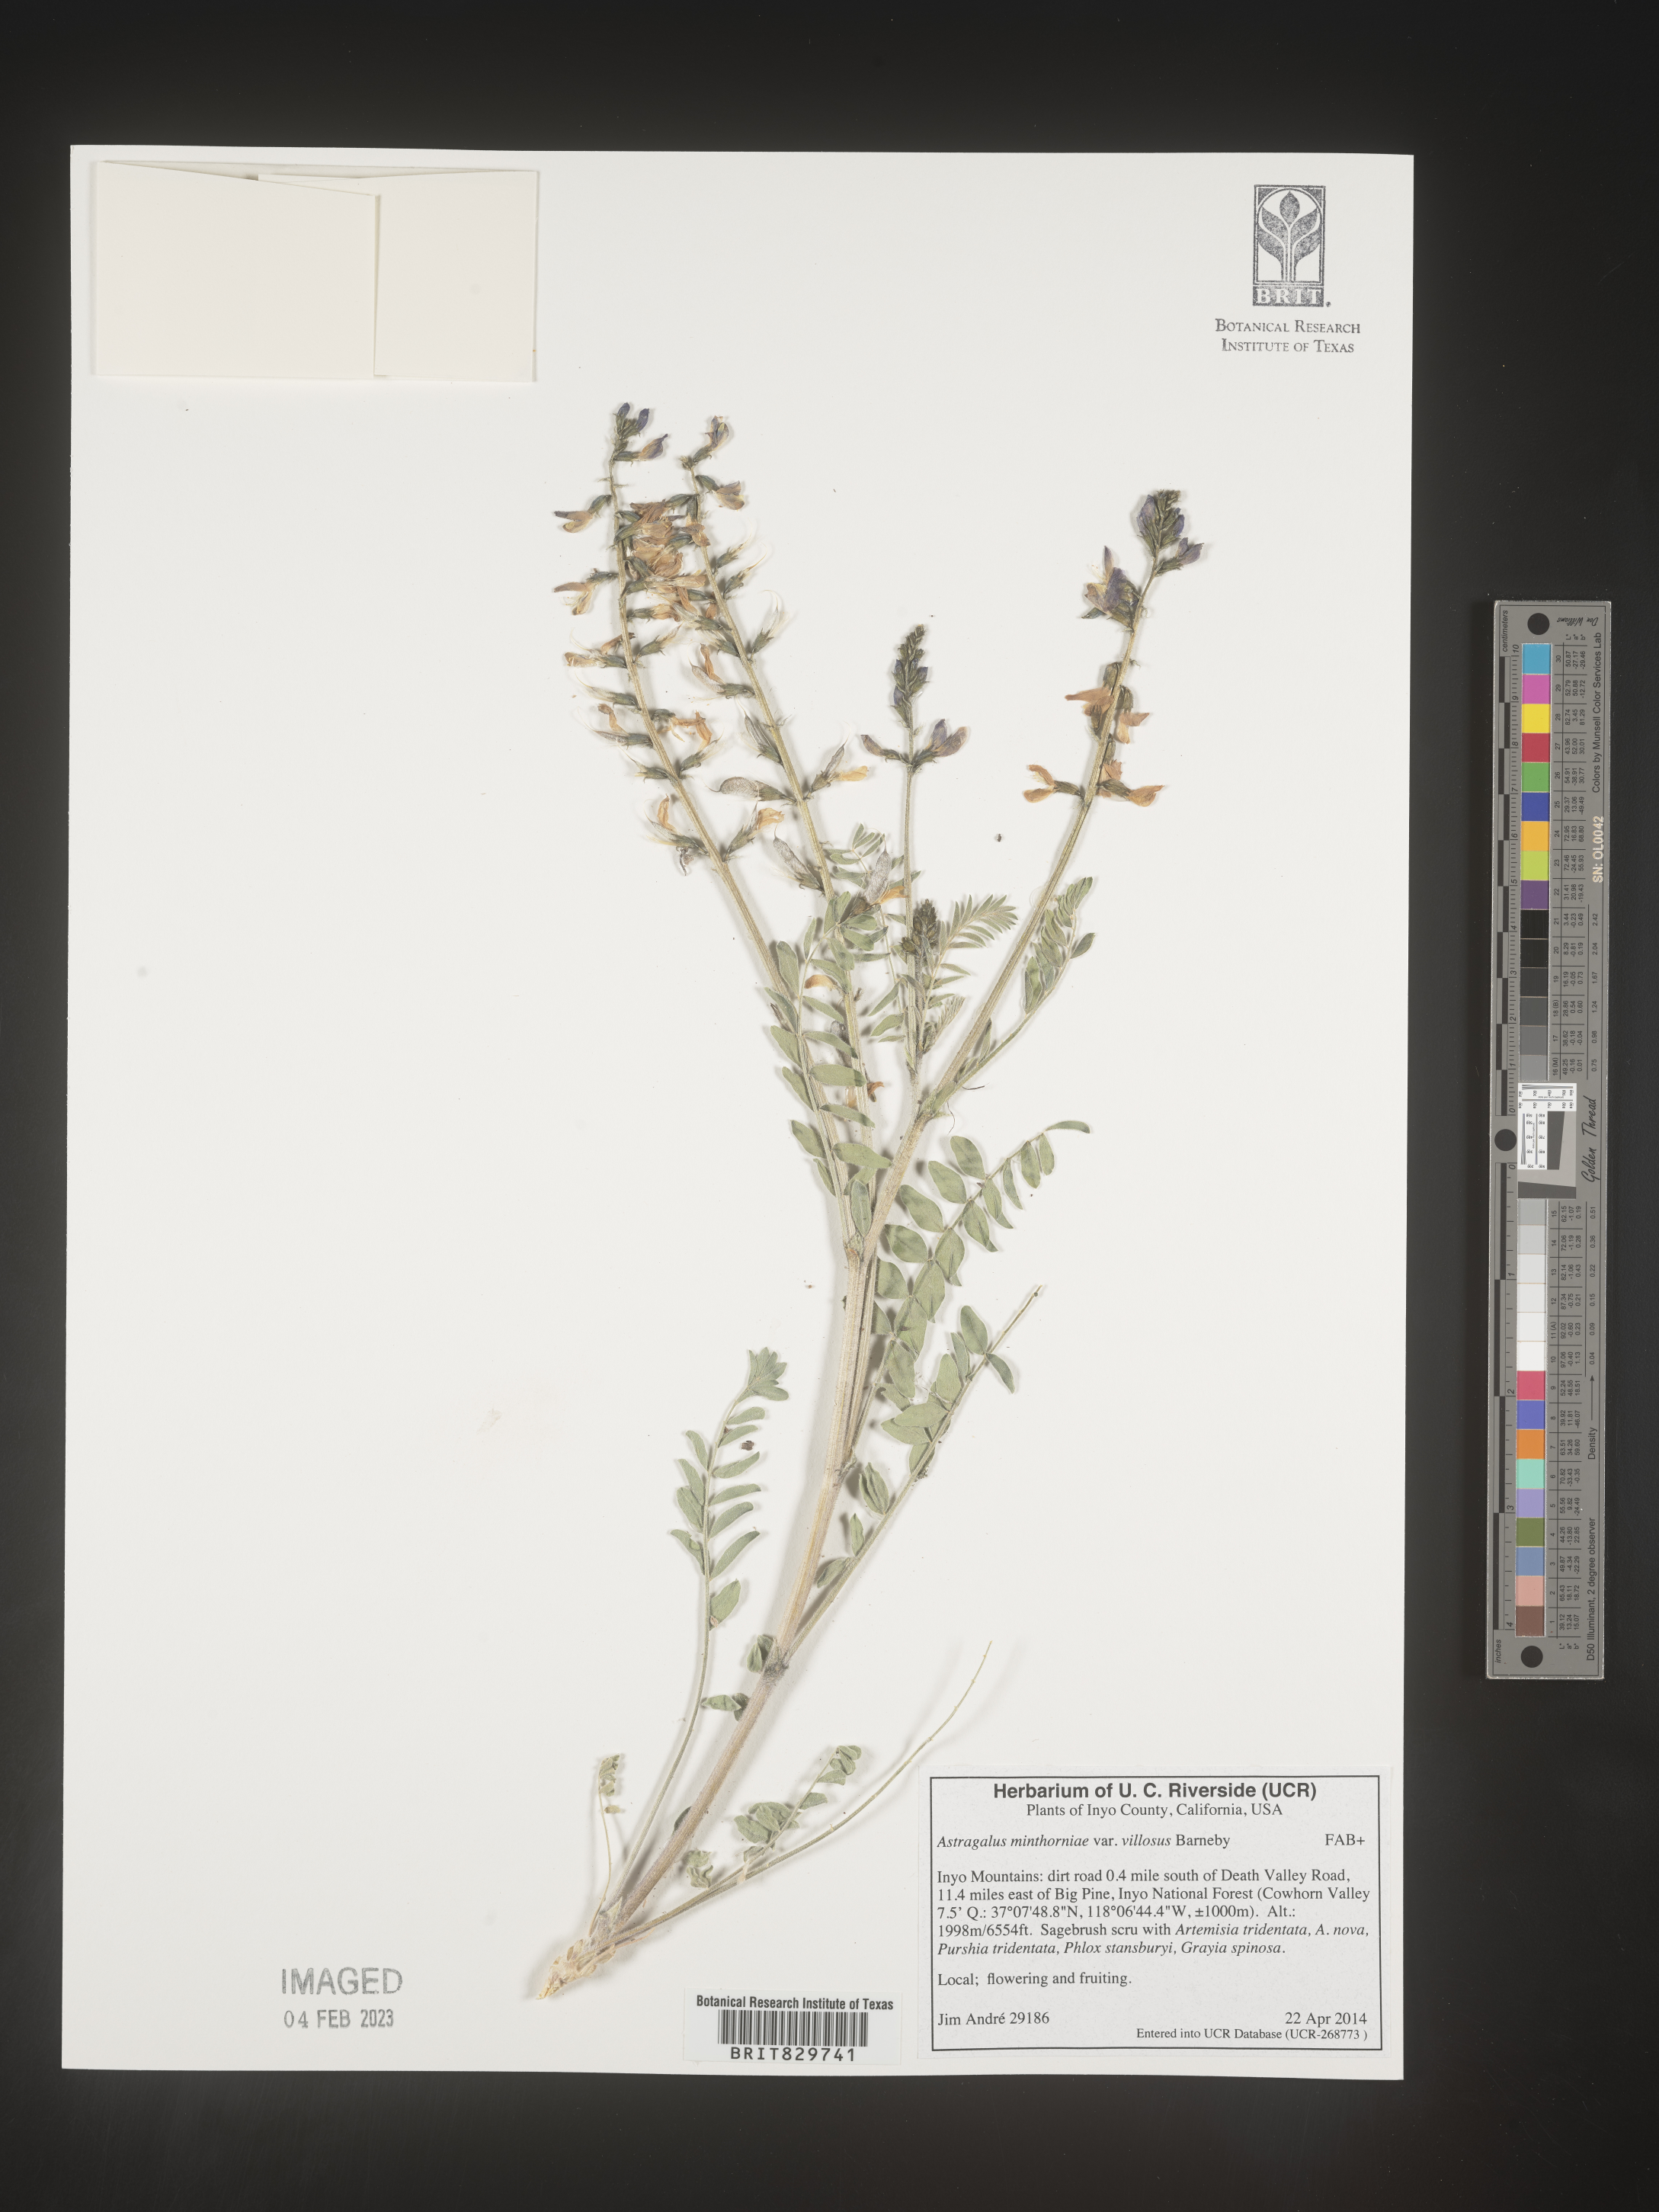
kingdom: Plantae
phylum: Tracheophyta
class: Magnoliopsida
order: Fabales
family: Fabaceae
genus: Astragalus
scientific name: Astragalus minthorniae
